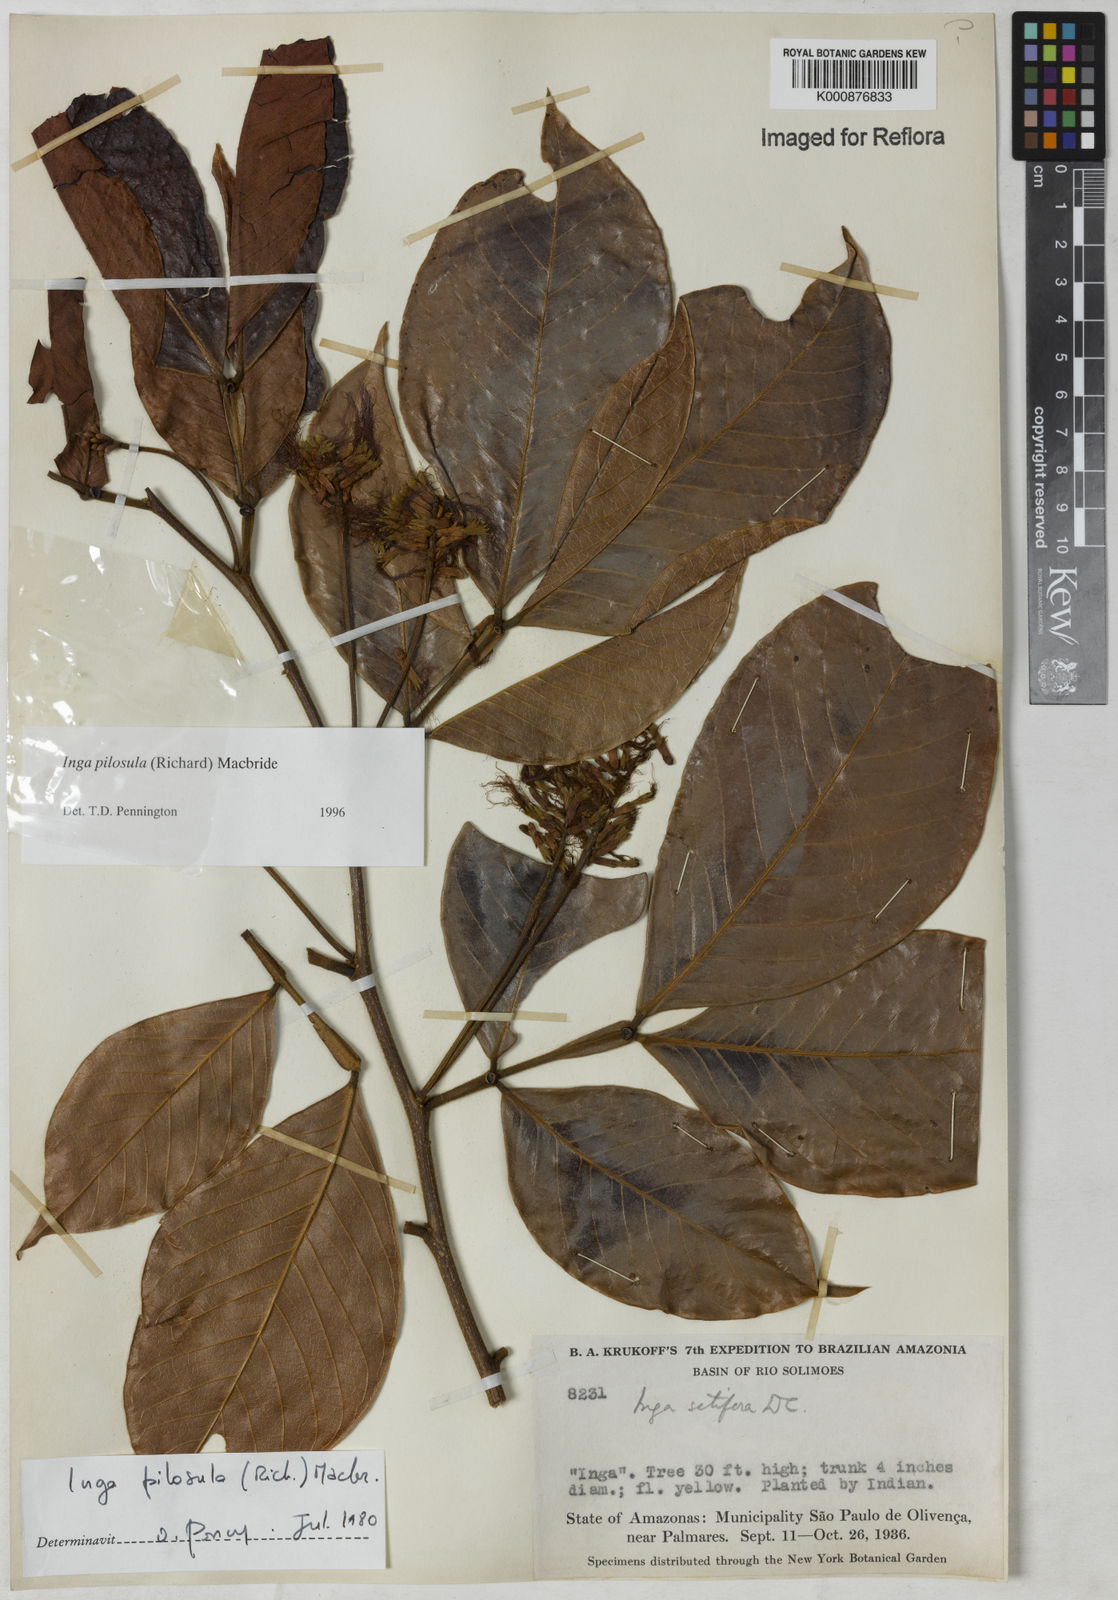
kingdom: Plantae
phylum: Tracheophyta
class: Magnoliopsida
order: Fabales
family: Fabaceae
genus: Inga
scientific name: Inga pilosula
